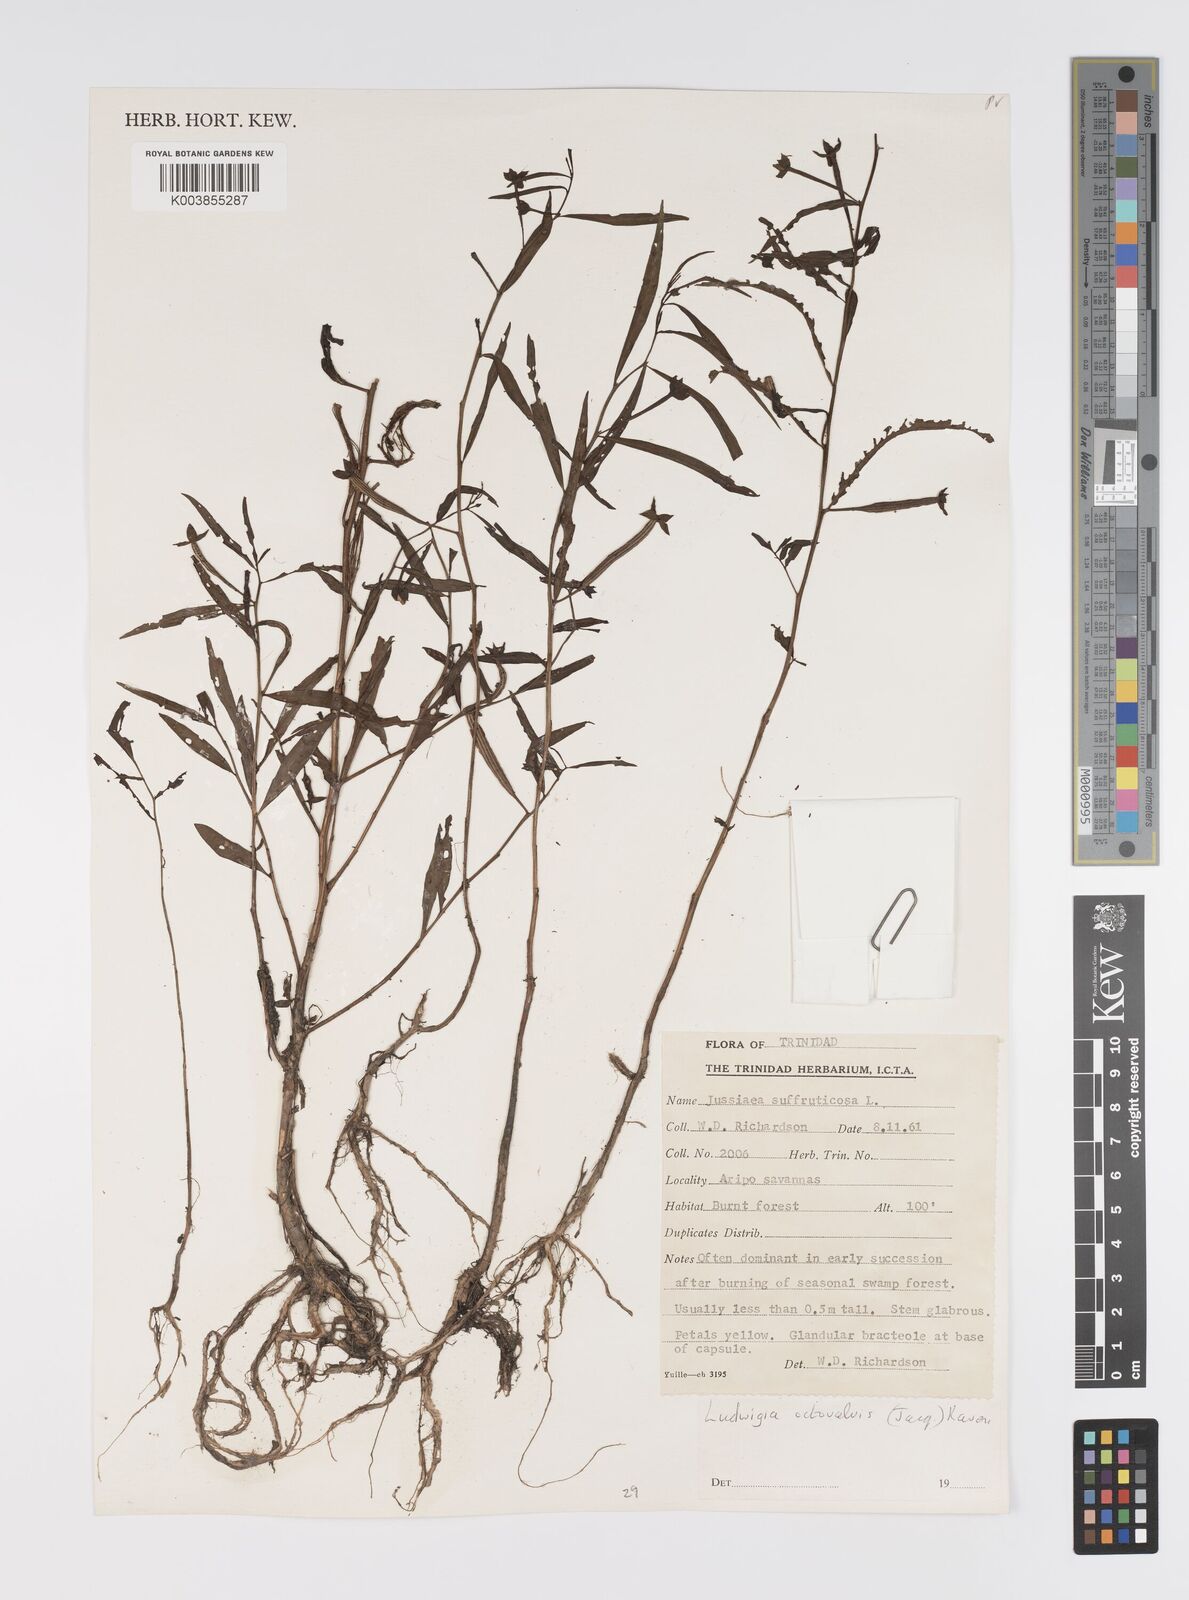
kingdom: Plantae
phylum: Tracheophyta
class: Magnoliopsida
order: Myrtales
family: Onagraceae
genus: Ludwigia
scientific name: Ludwigia octovalvis
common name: Water-primrose
